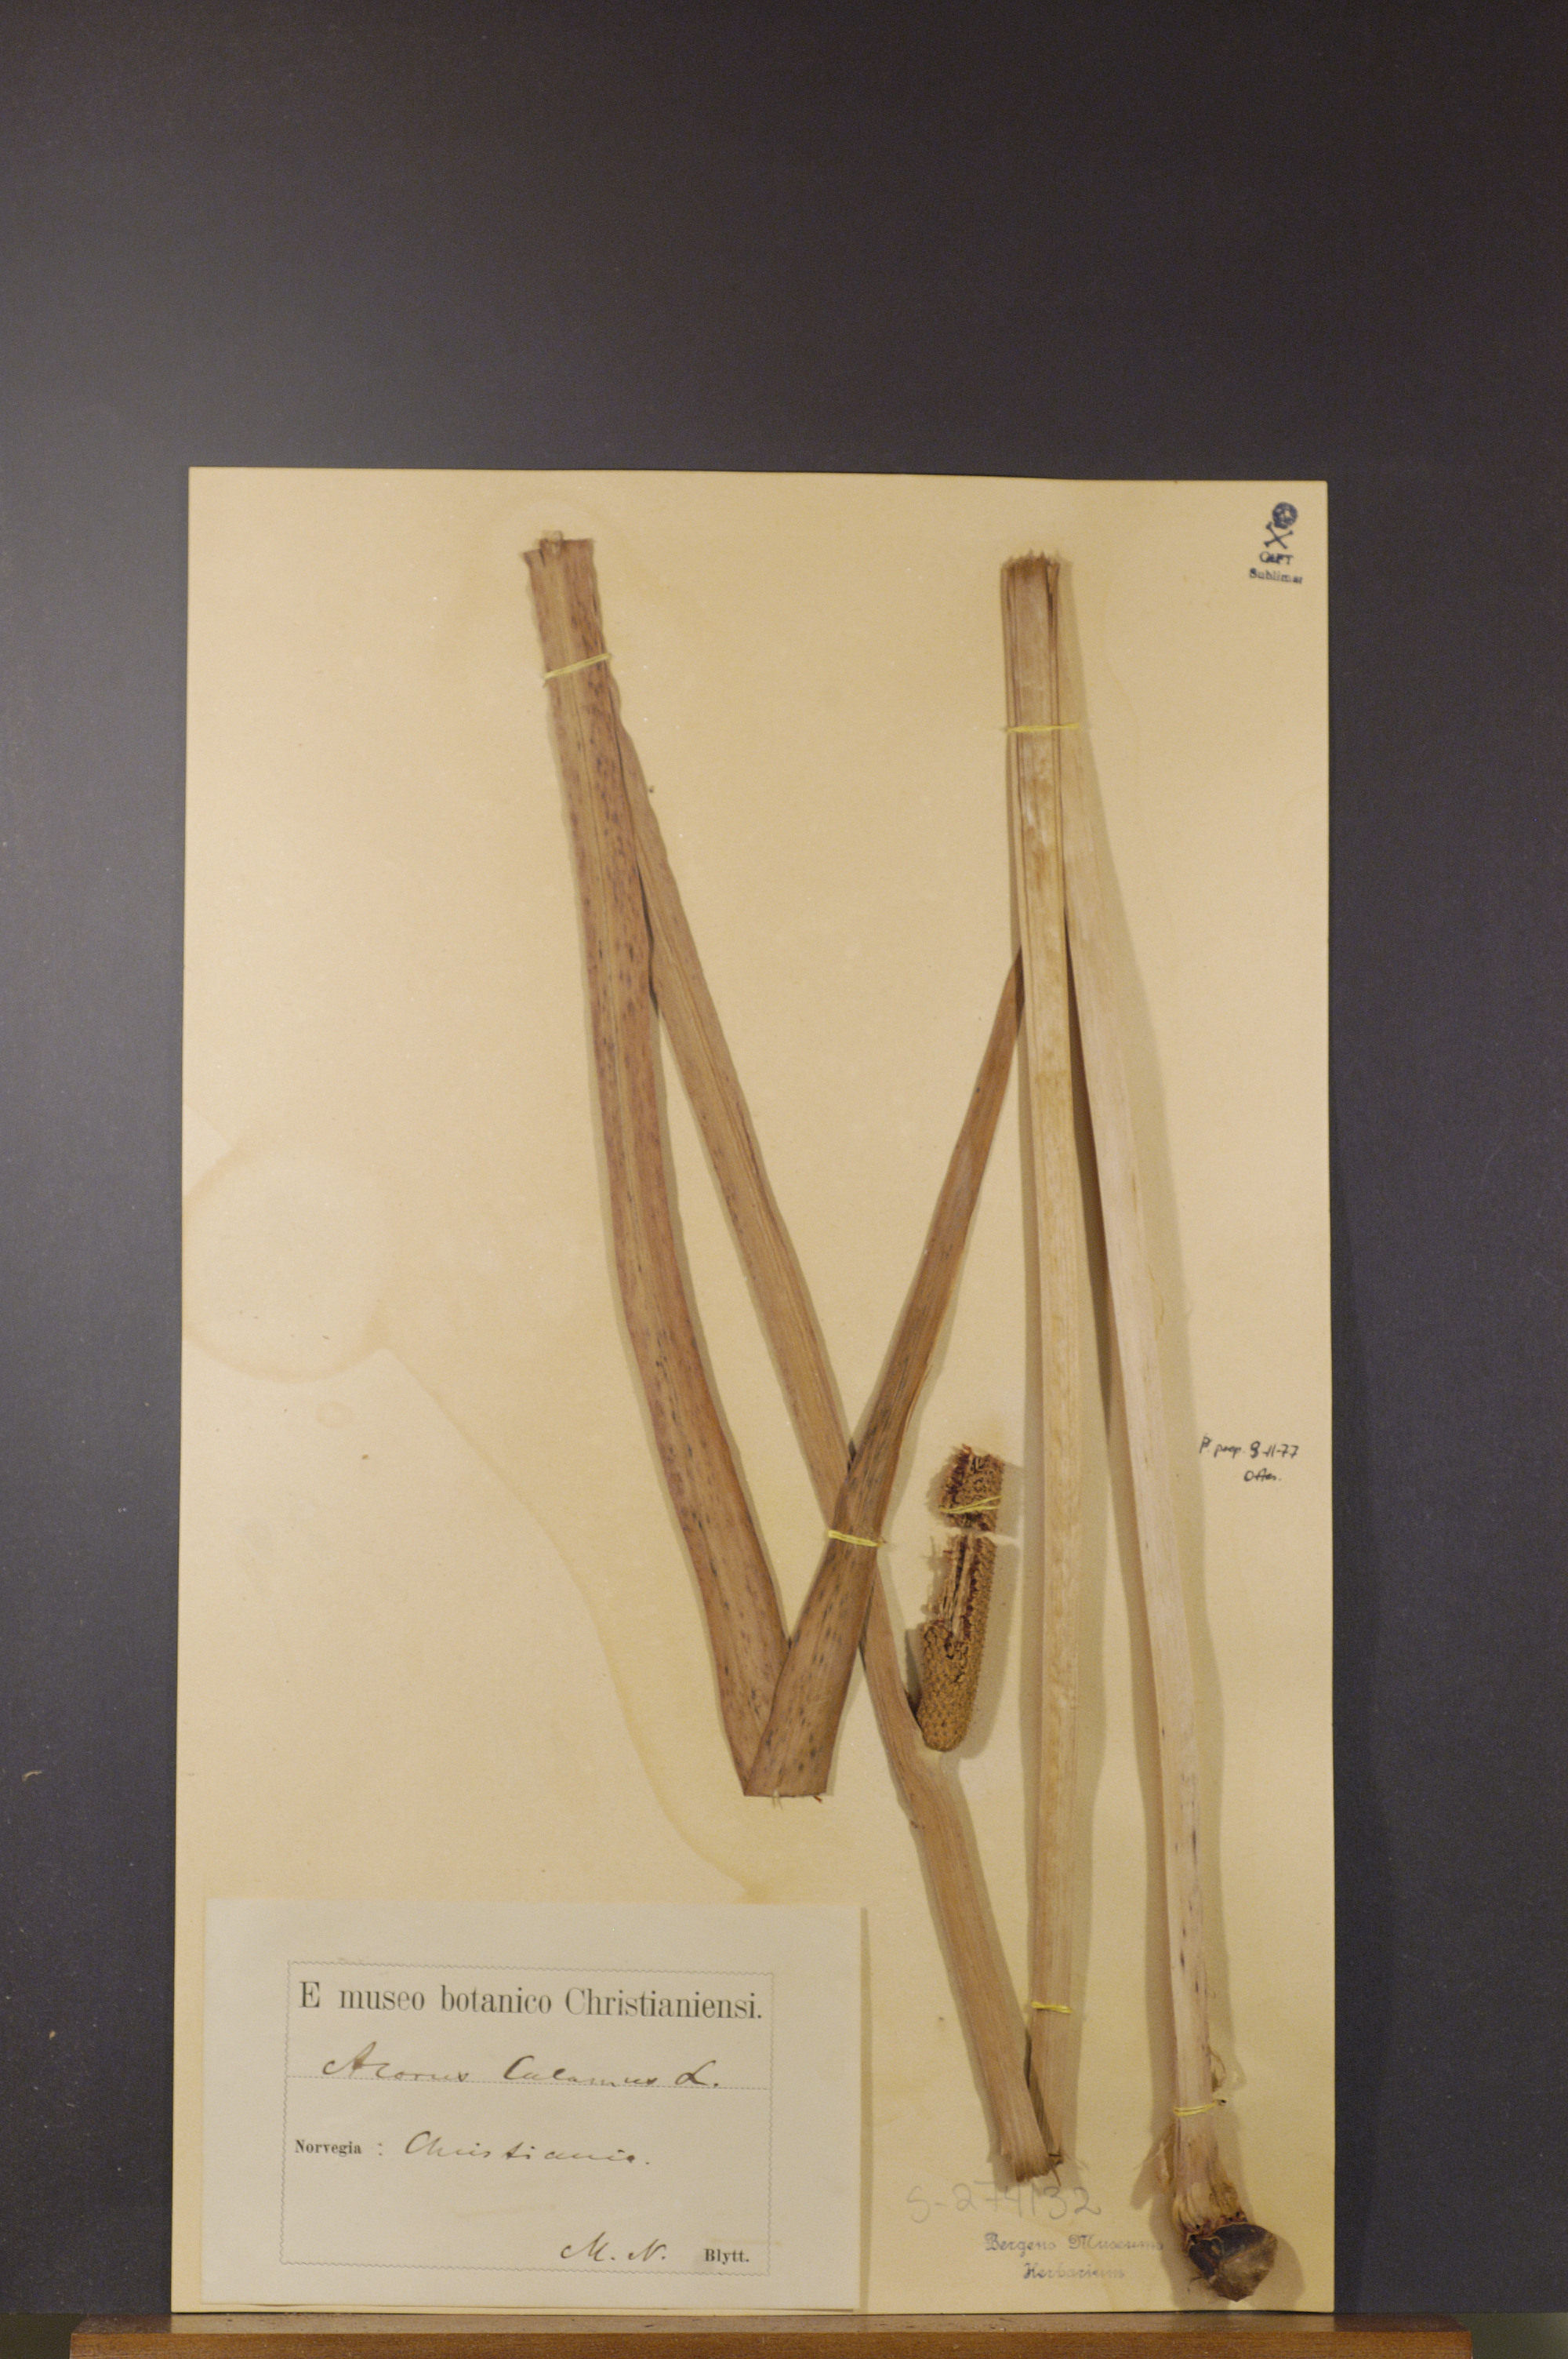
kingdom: Plantae
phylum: Tracheophyta
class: Liliopsida
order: Acorales
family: Acoraceae
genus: Acorus
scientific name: Acorus calamus
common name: Sweet-flag
